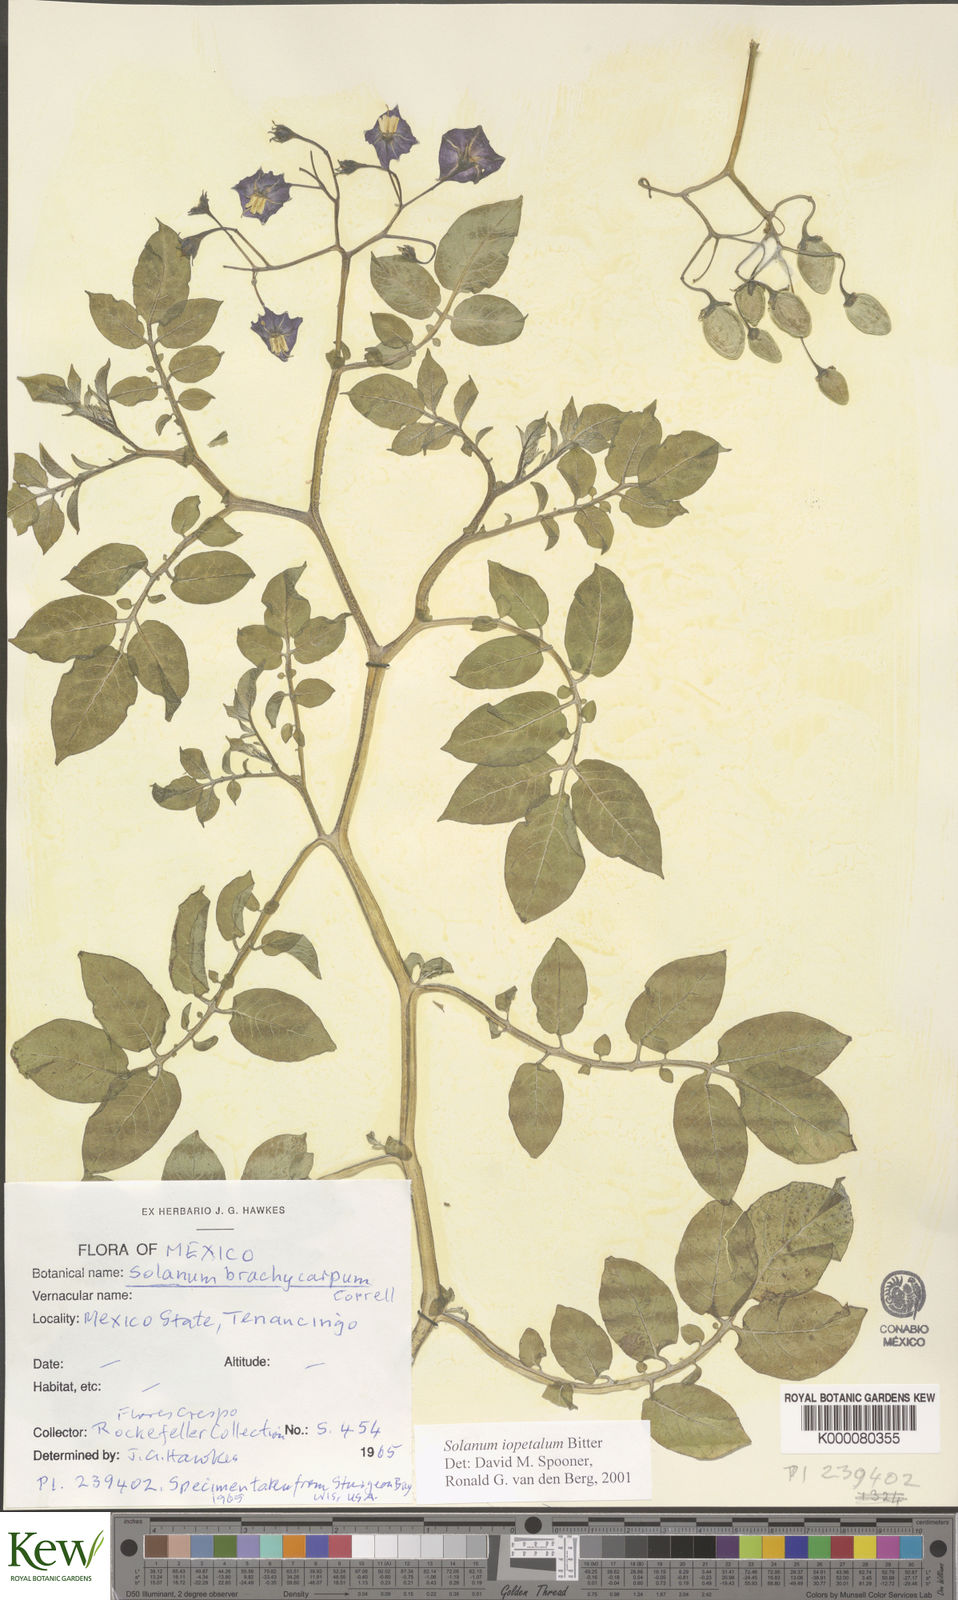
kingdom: Plantae
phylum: Tracheophyta
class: Magnoliopsida
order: Solanales
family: Solanaceae
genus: Solanum
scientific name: Solanum iopetalum
